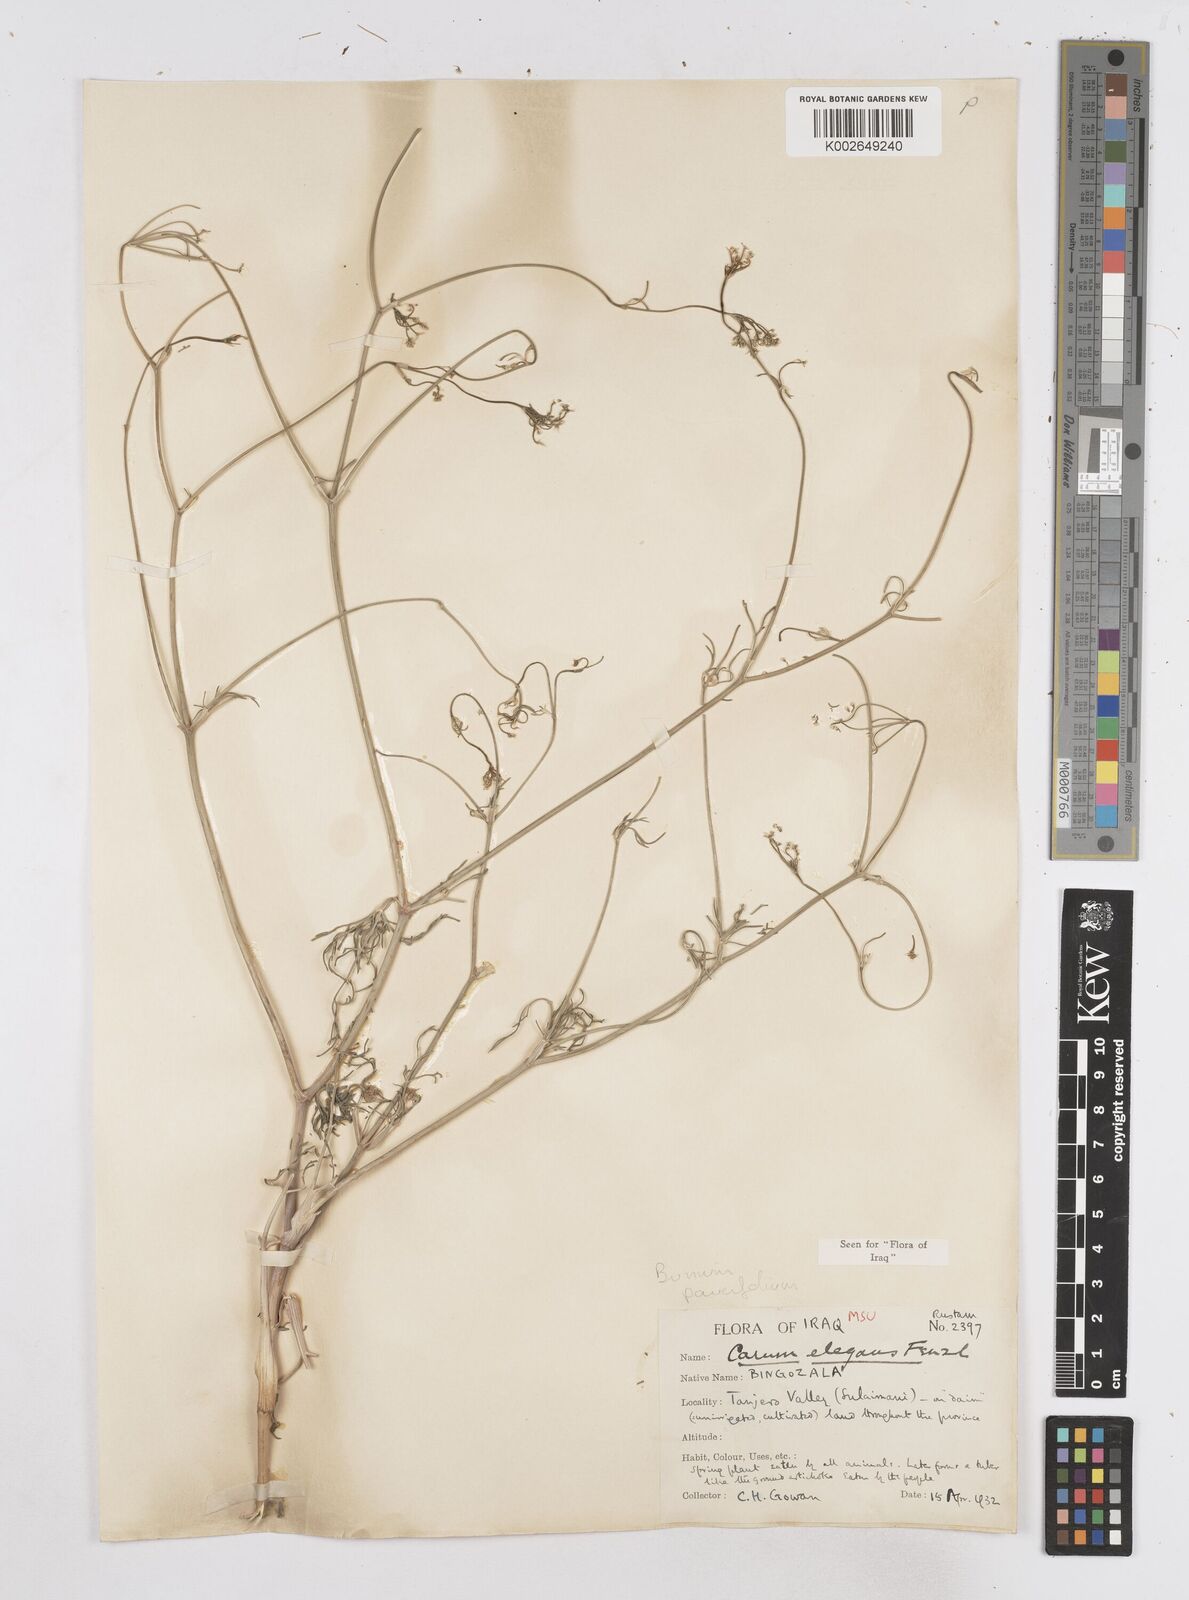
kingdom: Plantae
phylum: Tracheophyta
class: Magnoliopsida
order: Apiales
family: Apiaceae
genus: Bunium
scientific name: Bunium paucifolium
